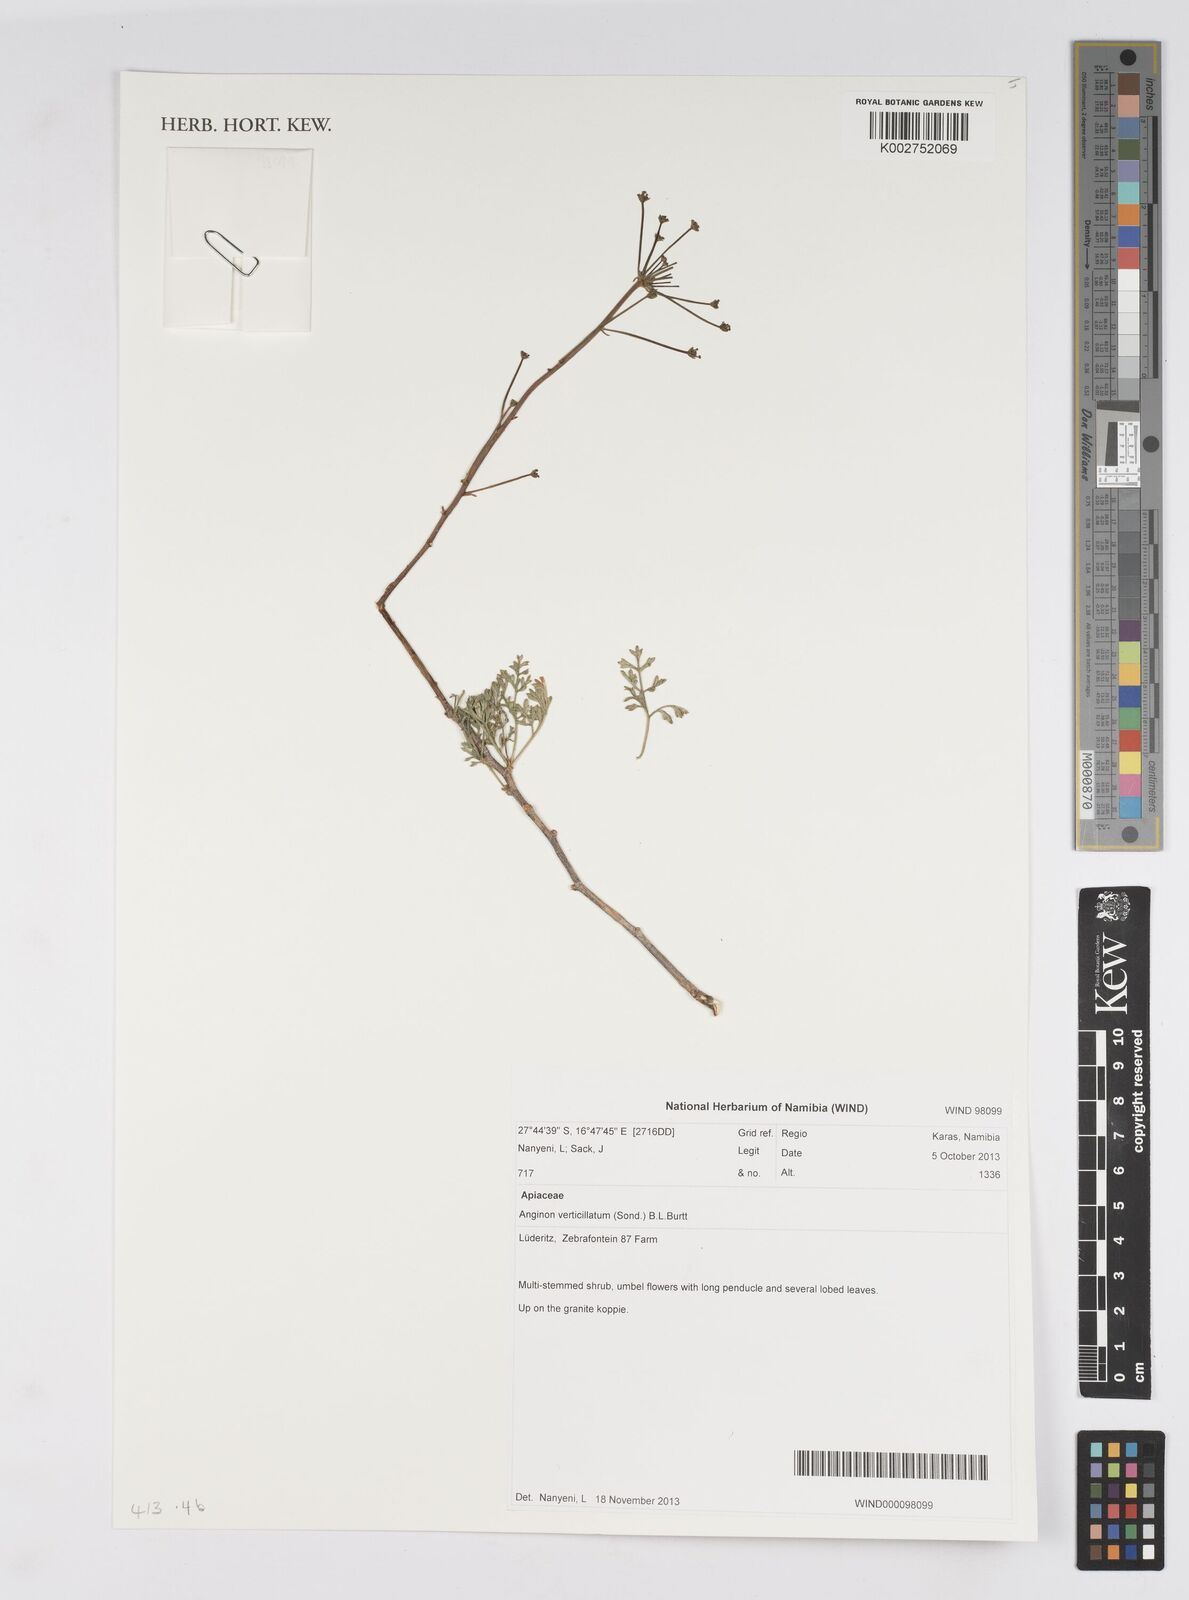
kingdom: Plantae
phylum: Tracheophyta
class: Magnoliopsida
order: Apiales
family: Apiaceae
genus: Anginon
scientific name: Anginon verticillatum
